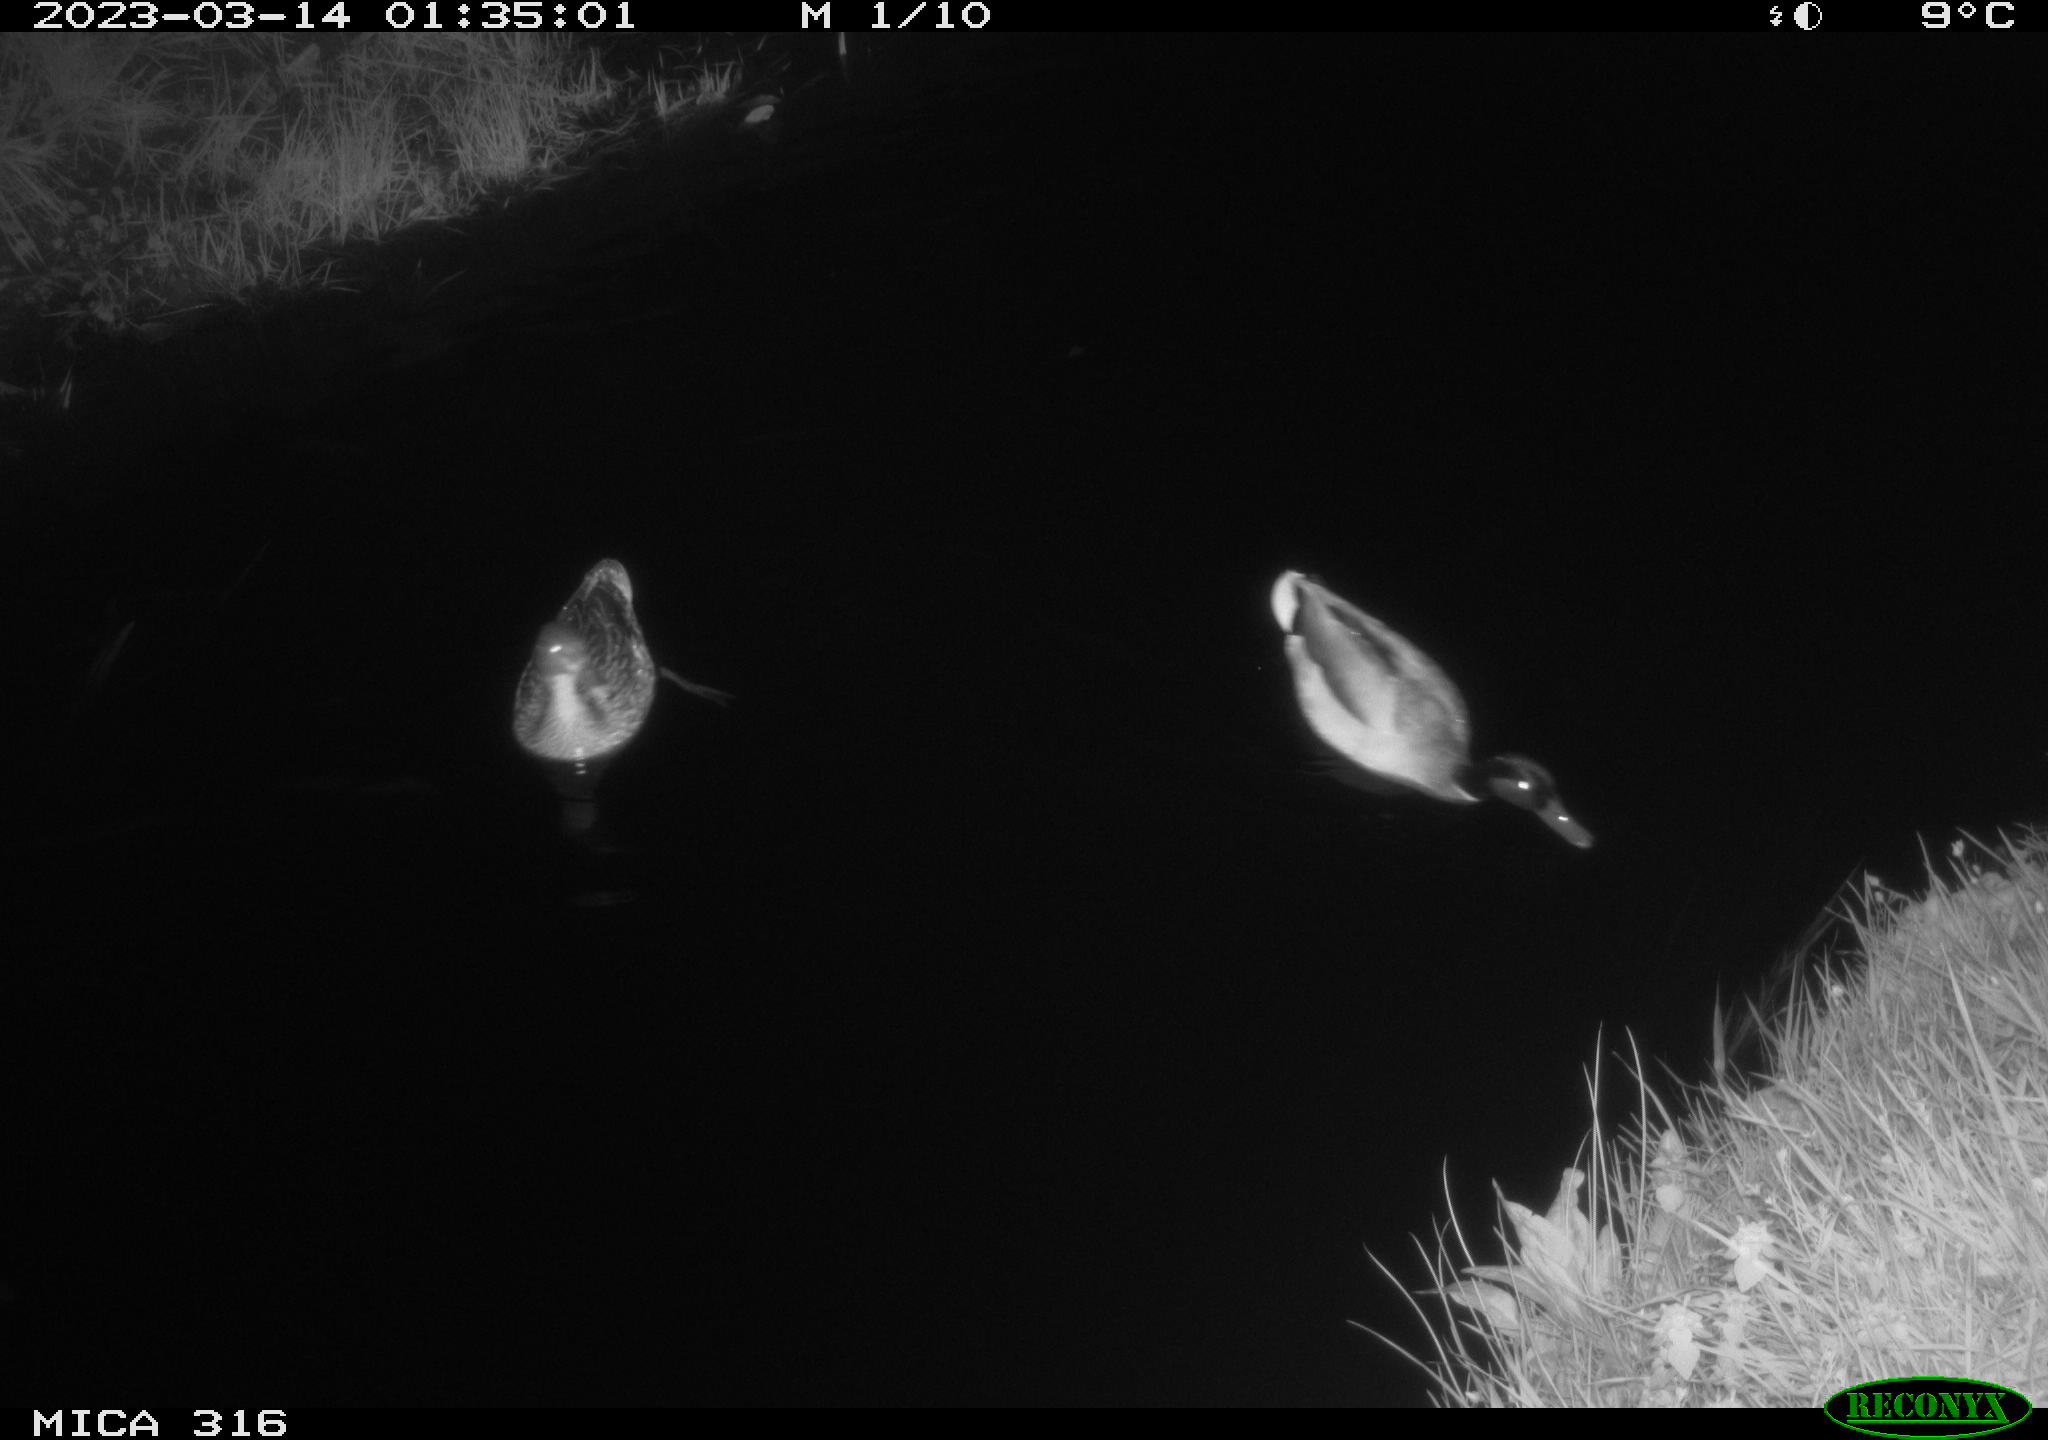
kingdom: Animalia
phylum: Chordata
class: Aves
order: Anseriformes
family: Anatidae
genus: Anas
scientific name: Anas
